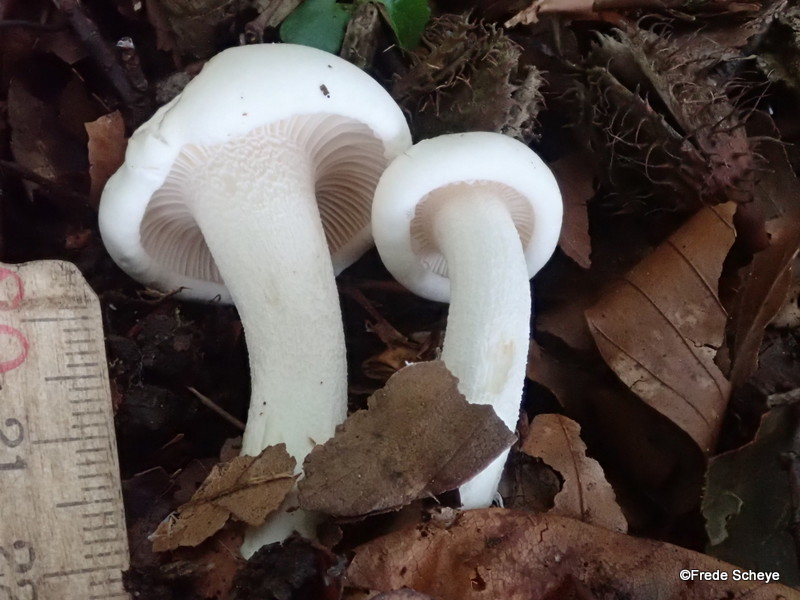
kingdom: Fungi
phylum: Basidiomycota
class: Agaricomycetes
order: Agaricales
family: Hygrophoraceae
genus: Hygrophorus
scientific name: Hygrophorus eburneus
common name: elfenbens-sneglehat
